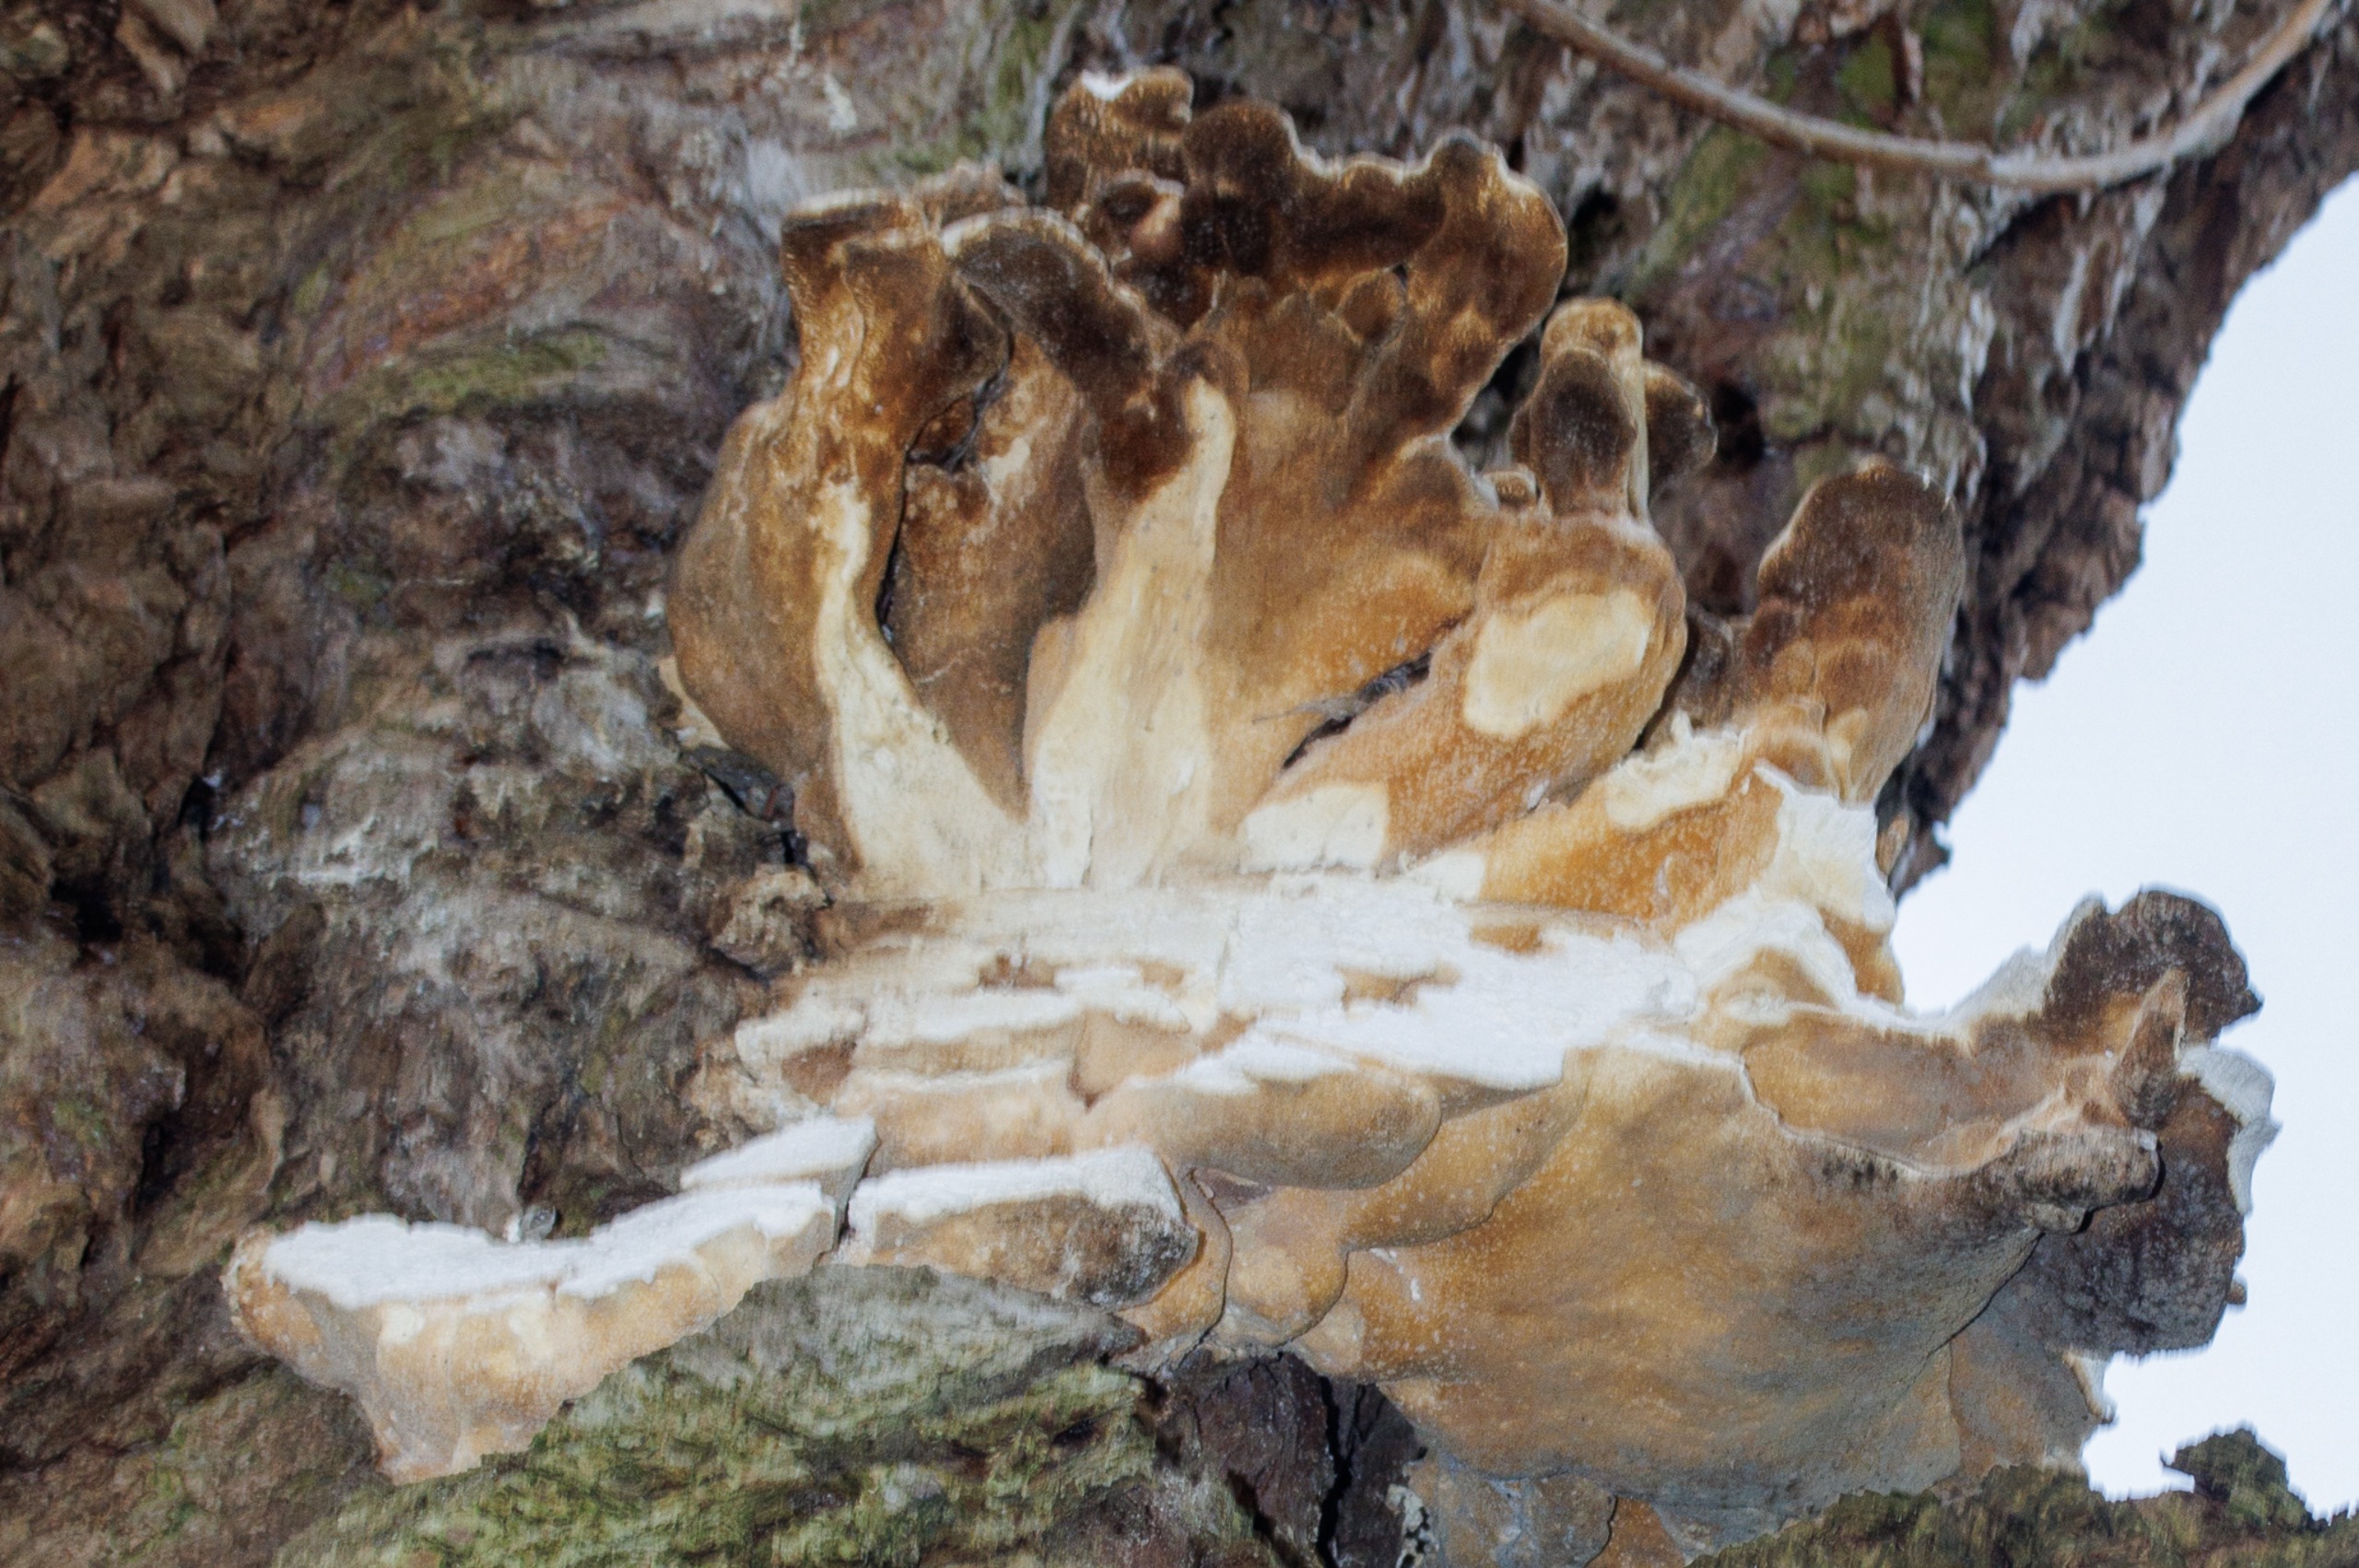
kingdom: Fungi
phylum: Basidiomycota
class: Agaricomycetes
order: Polyporales
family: Laetiporaceae
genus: Laetiporus
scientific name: Laetiporus sulphureus
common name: Svovlporesvamp
